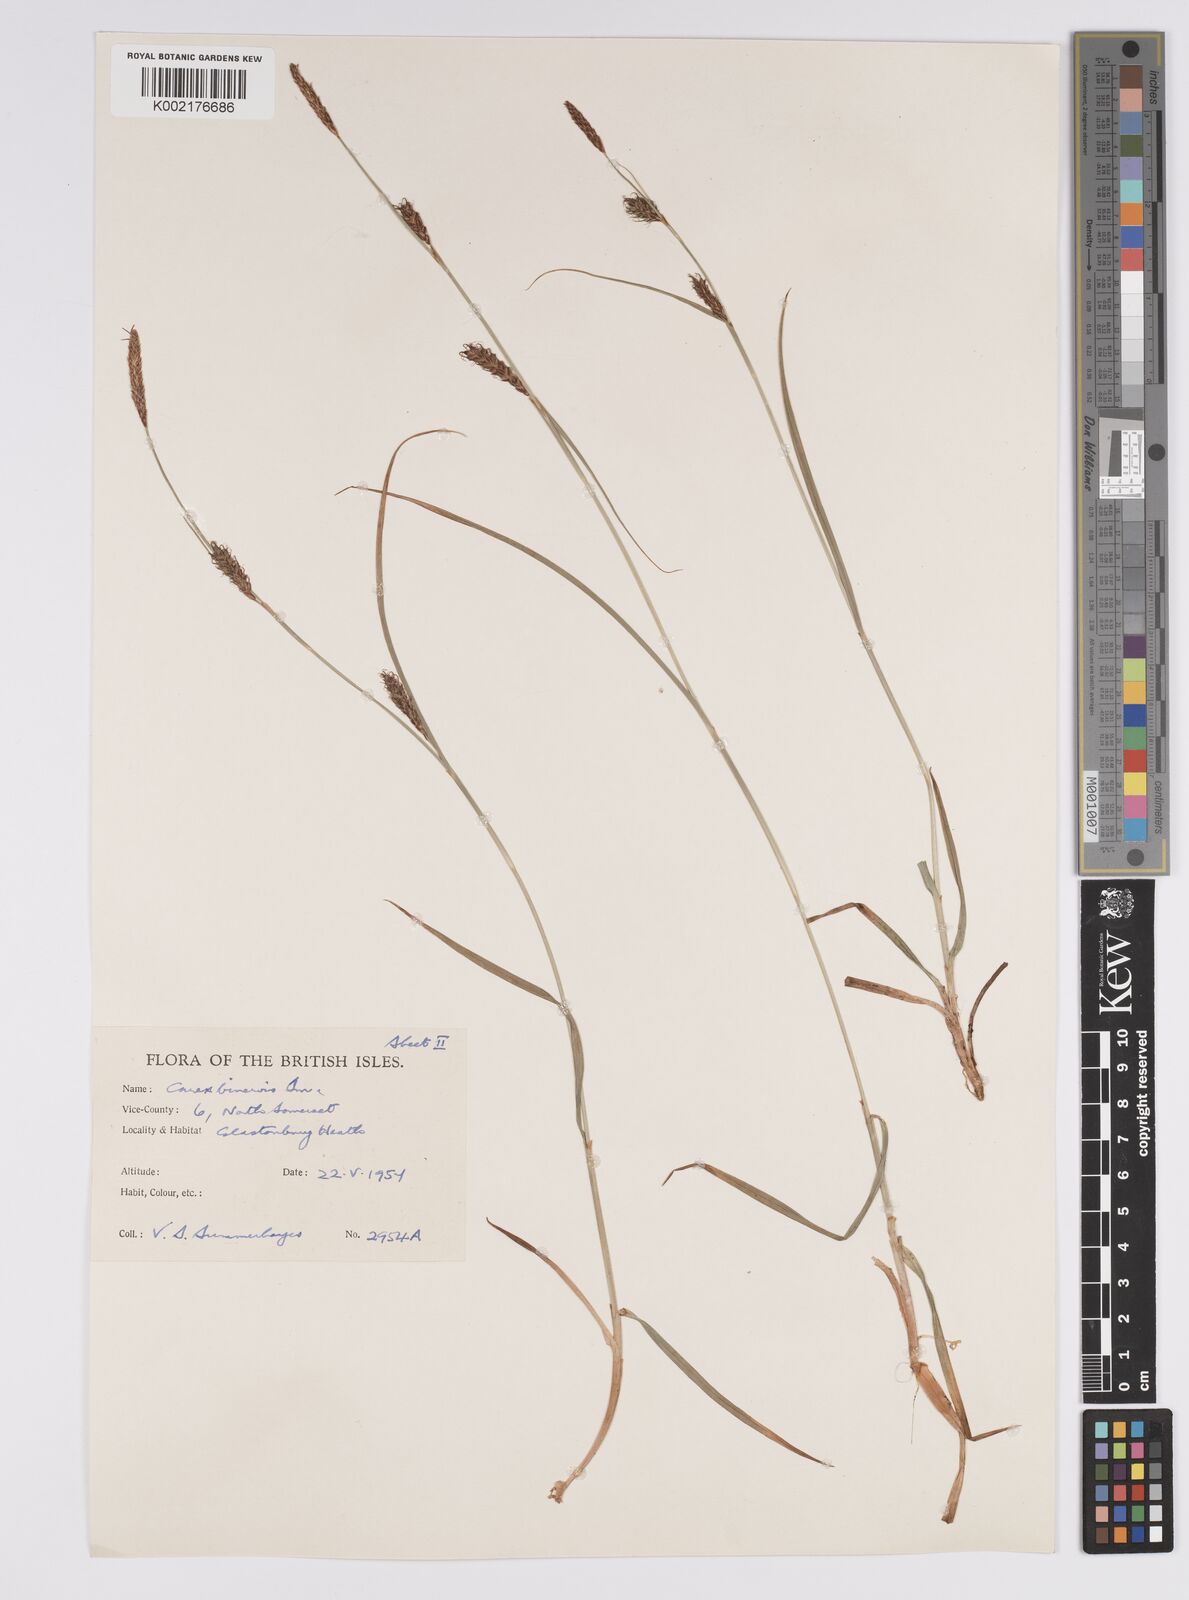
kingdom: Plantae
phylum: Tracheophyta
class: Liliopsida
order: Poales
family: Cyperaceae
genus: Carex
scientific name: Carex binervis
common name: Green-ribbed sedge
